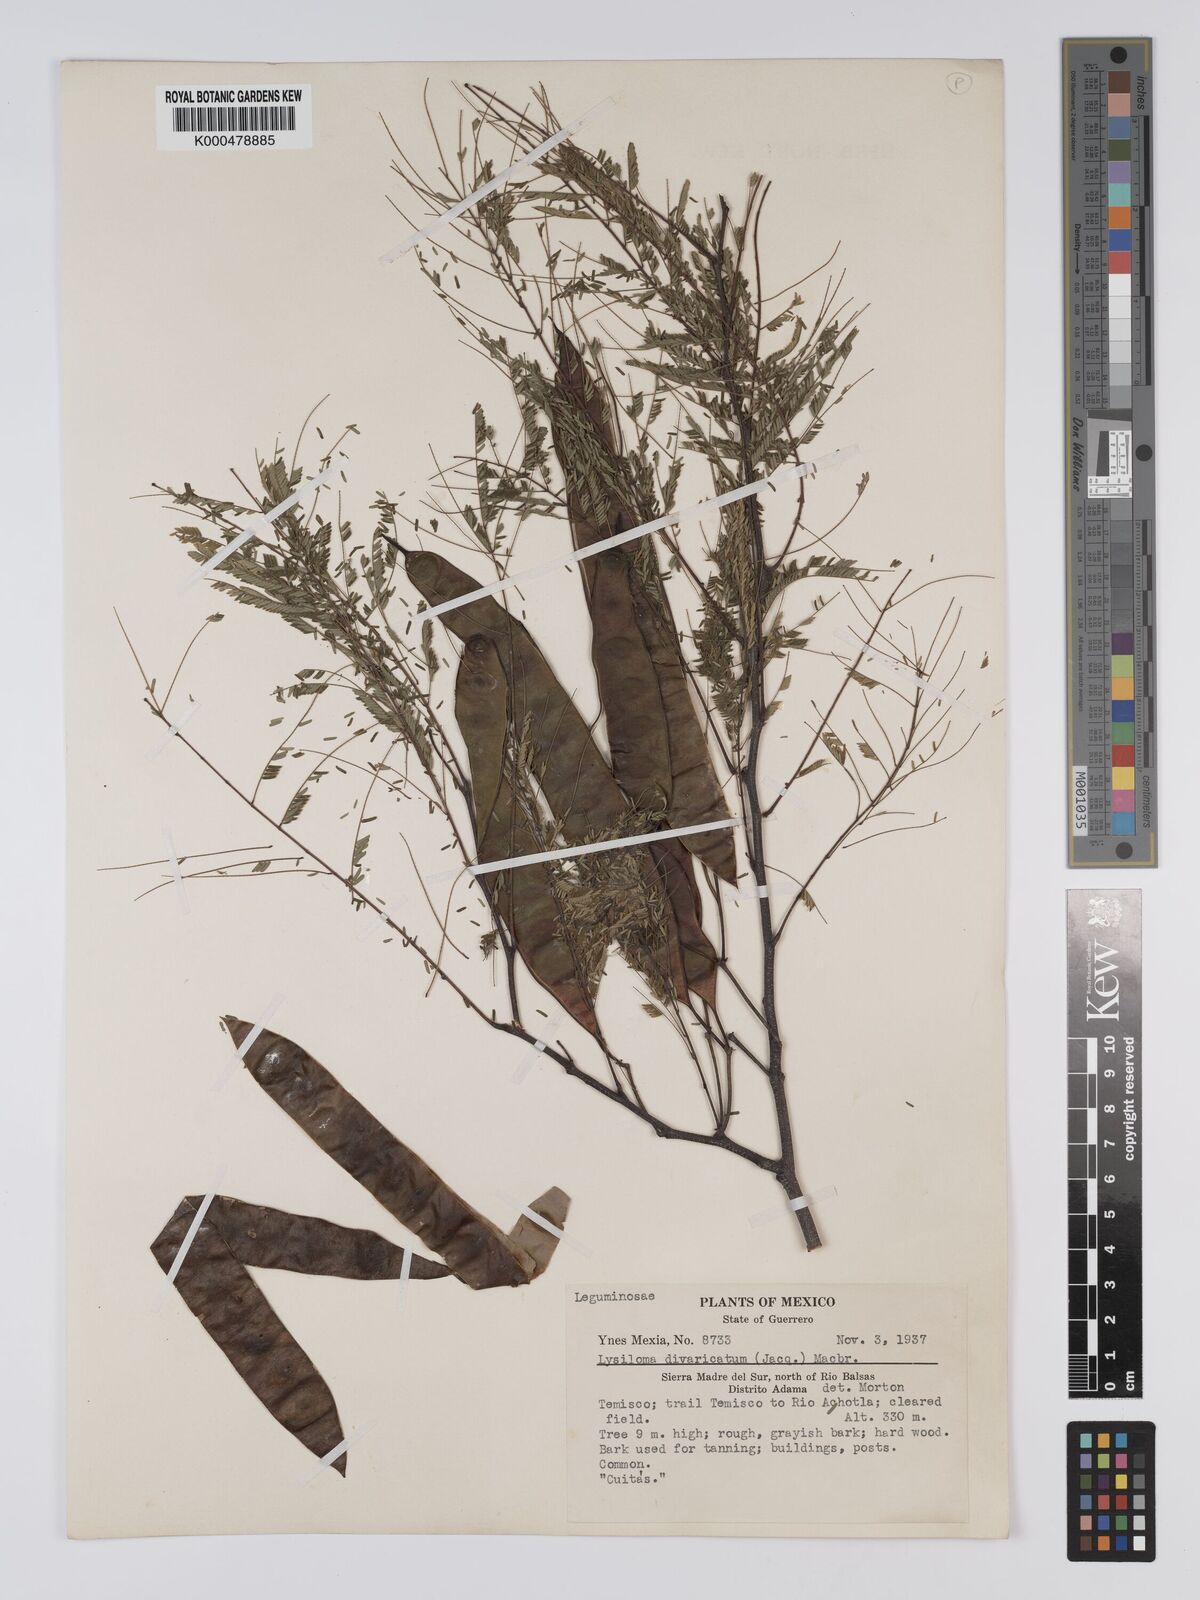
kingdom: Plantae
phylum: Tracheophyta
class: Magnoliopsida
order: Fabales
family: Fabaceae
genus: Lysiloma
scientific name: Lysiloma divaricatum
